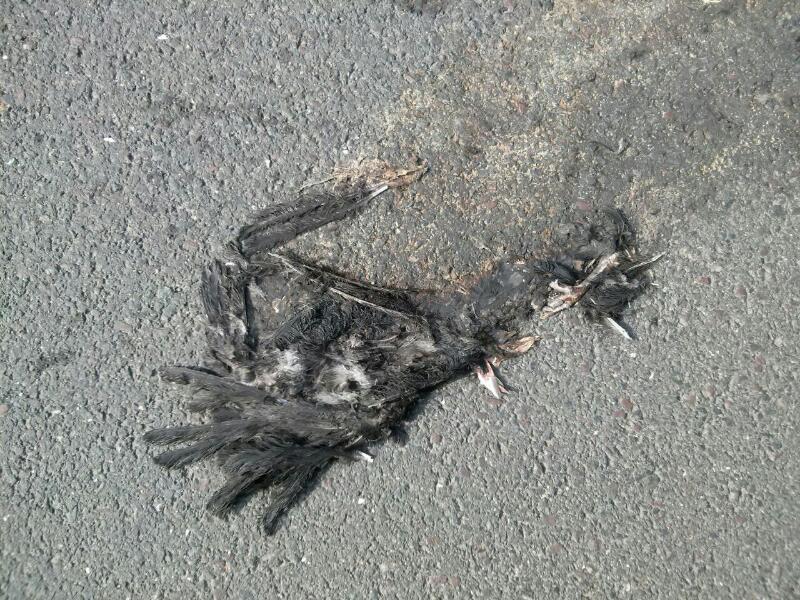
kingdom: Animalia
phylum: Chordata
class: Aves
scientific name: Aves
